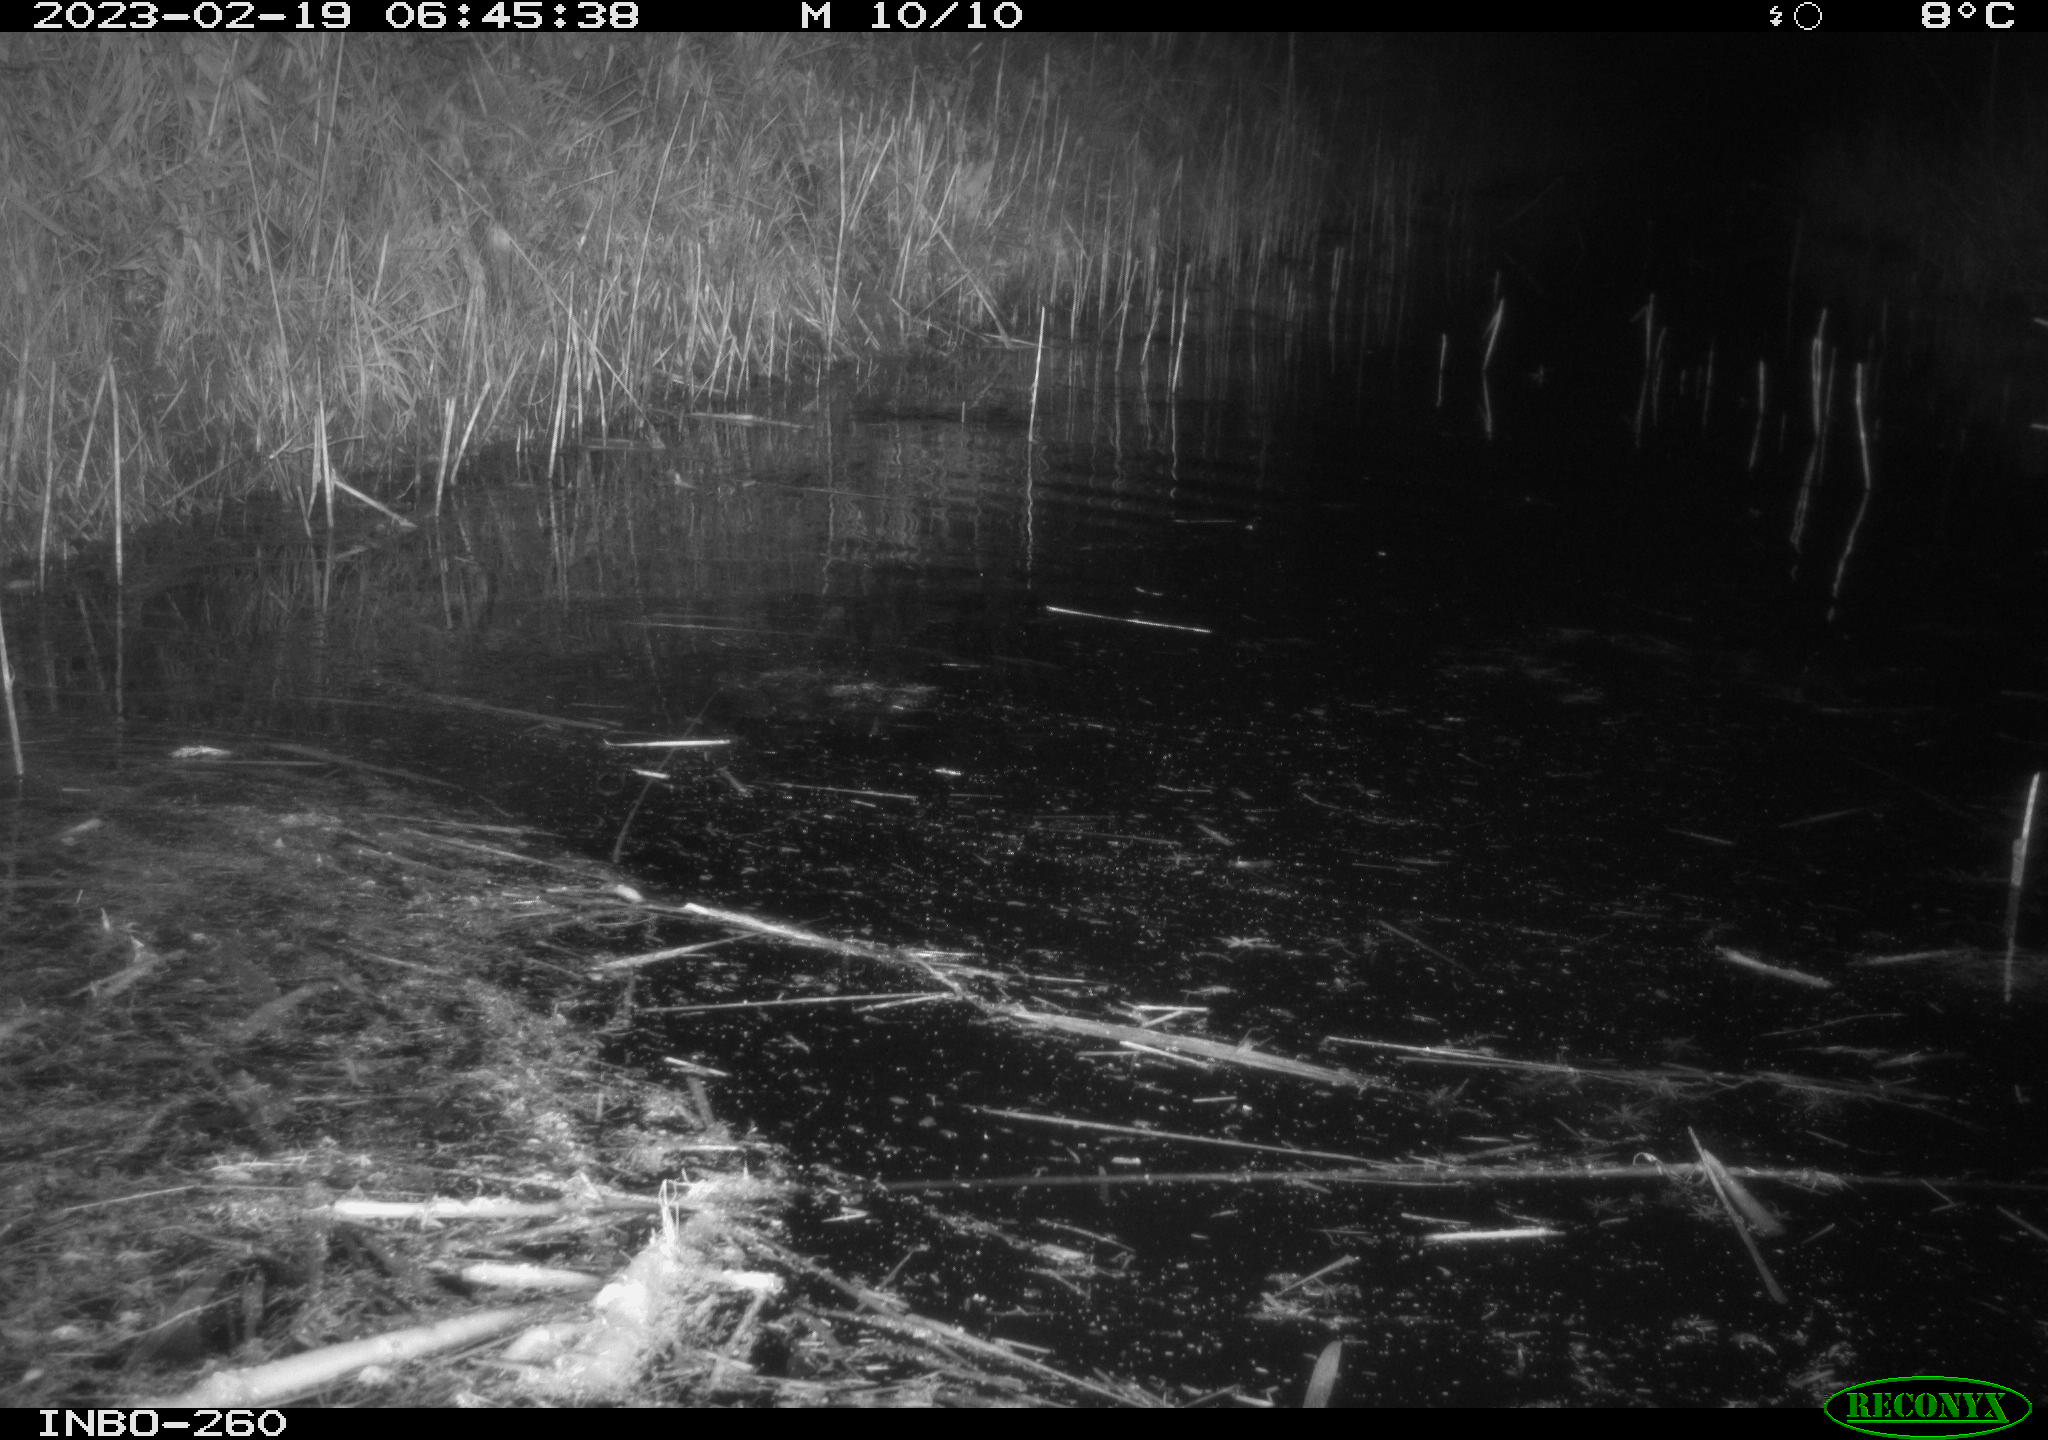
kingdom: Animalia
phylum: Chordata
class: Mammalia
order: Rodentia
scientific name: Rodentia
